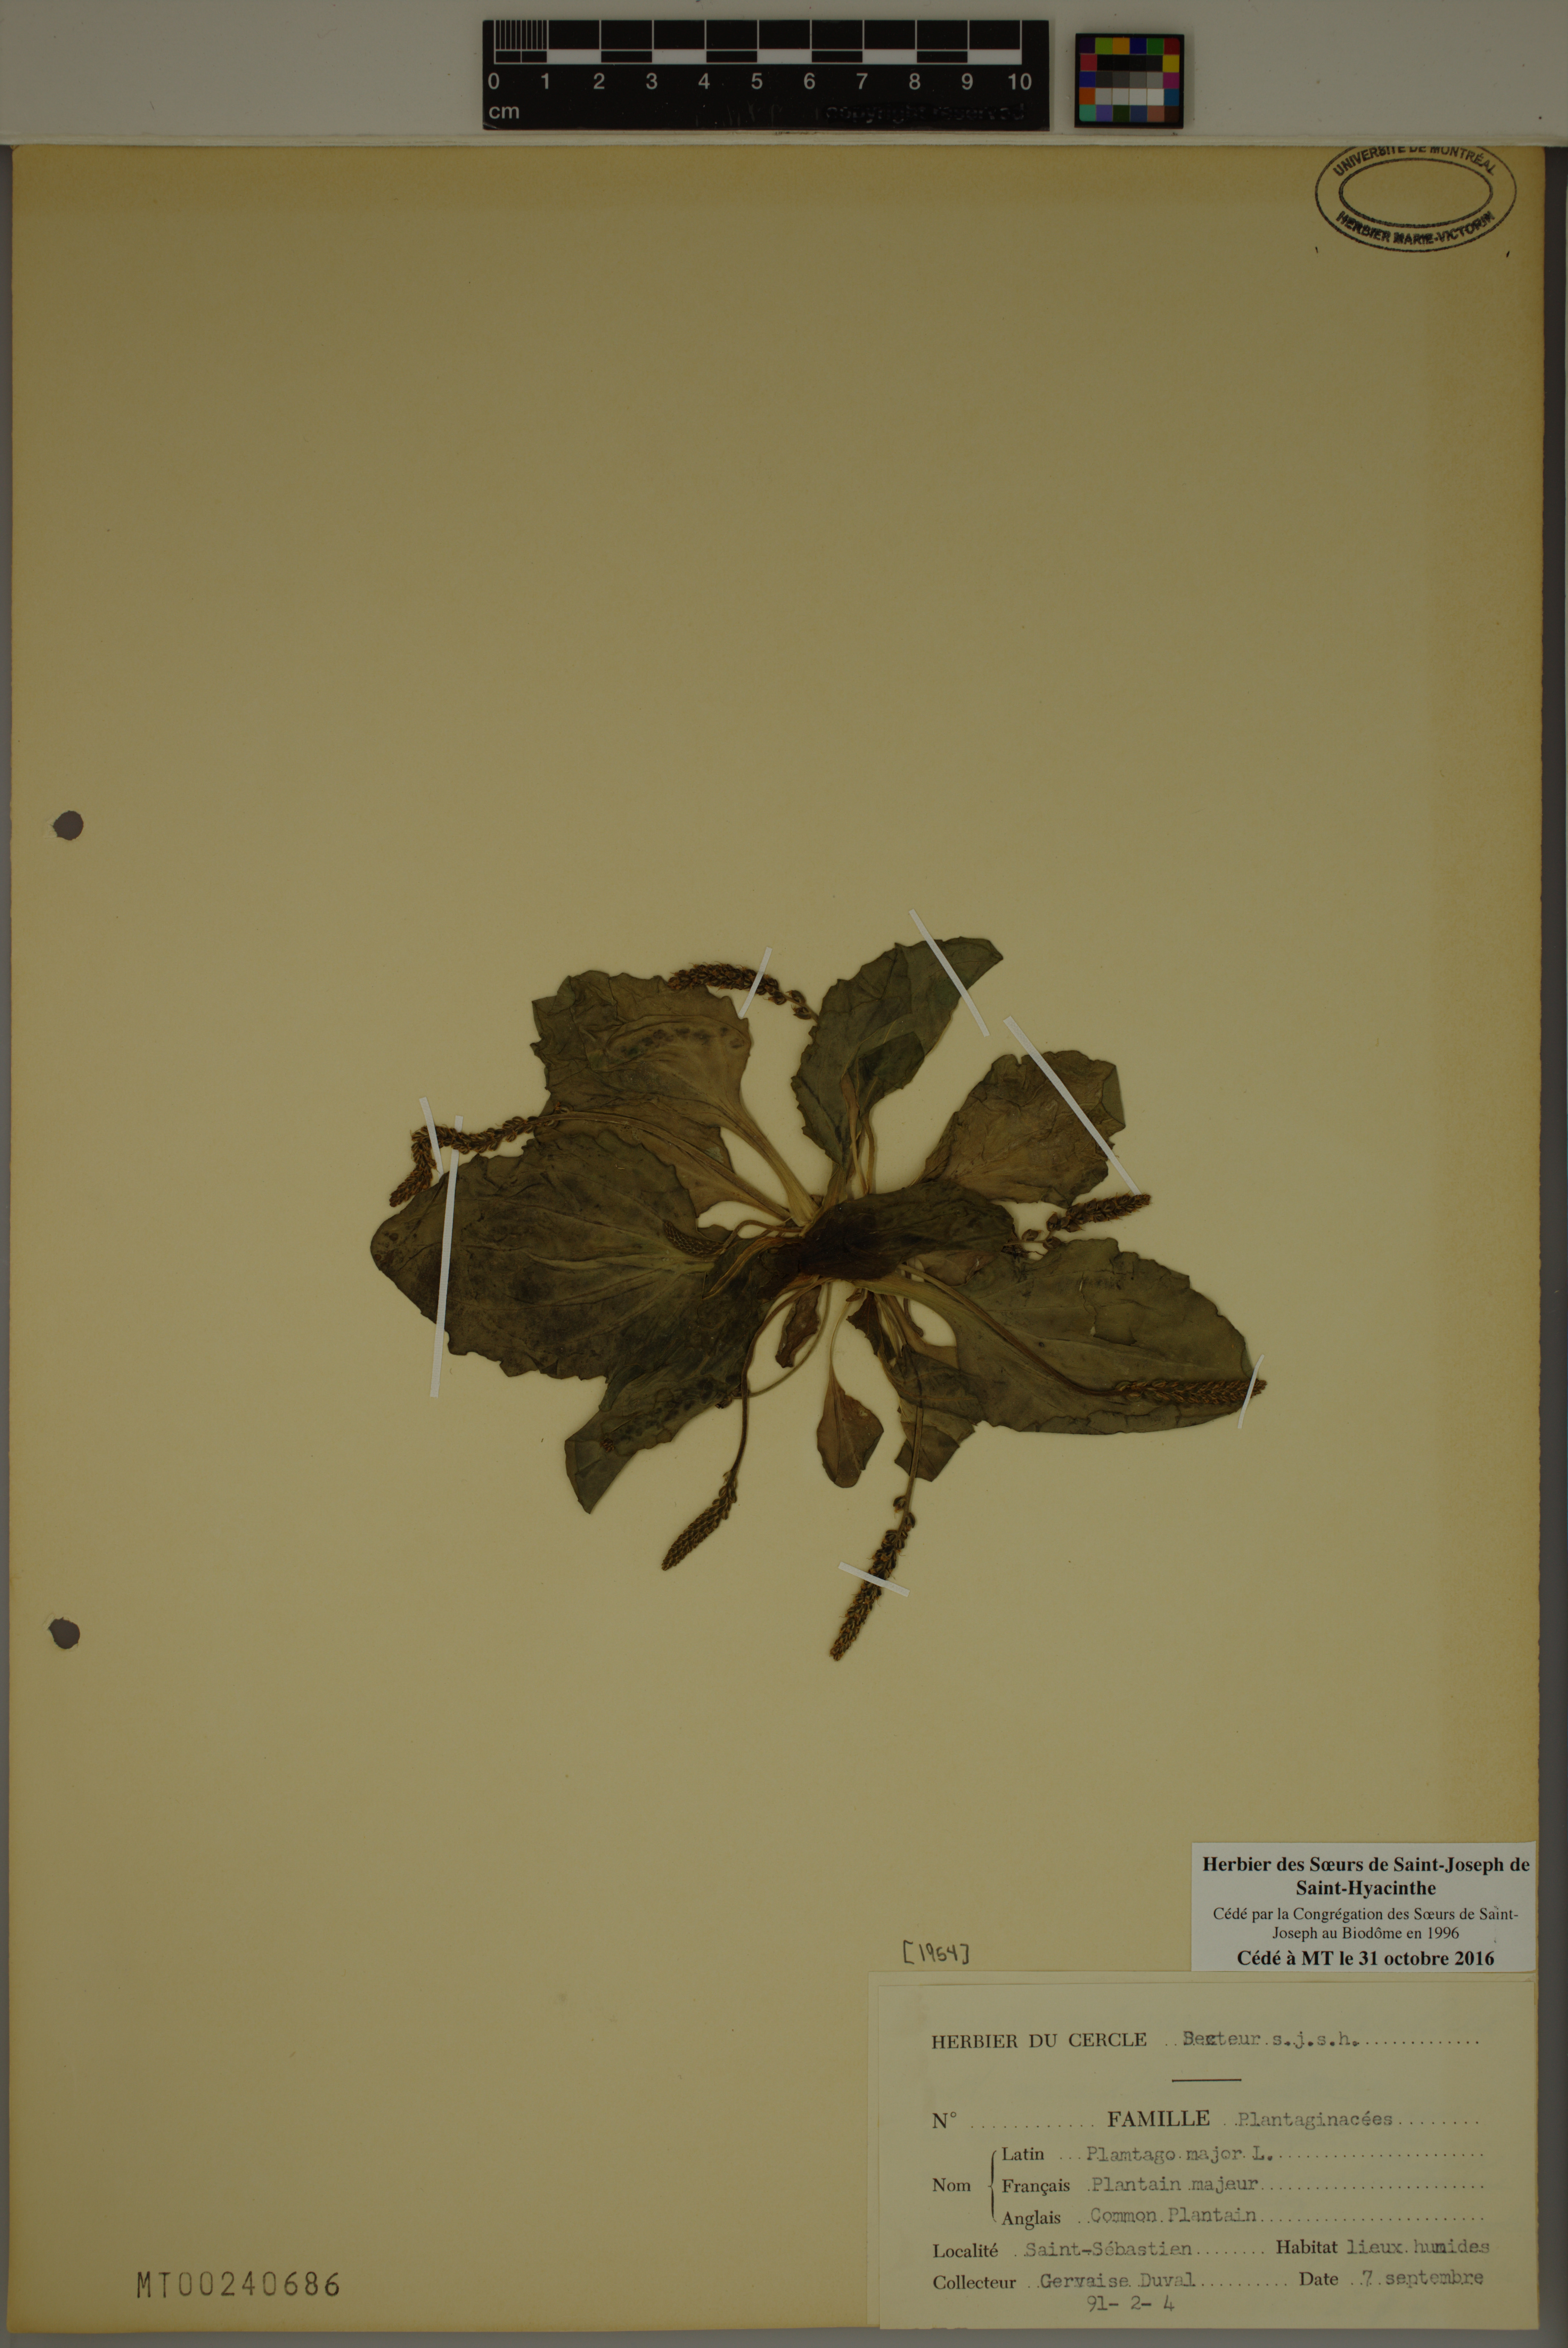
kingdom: Plantae
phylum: Tracheophyta
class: Magnoliopsida
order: Lamiales
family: Plantaginaceae
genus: Plantago
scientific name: Plantago major
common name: Common plantain
